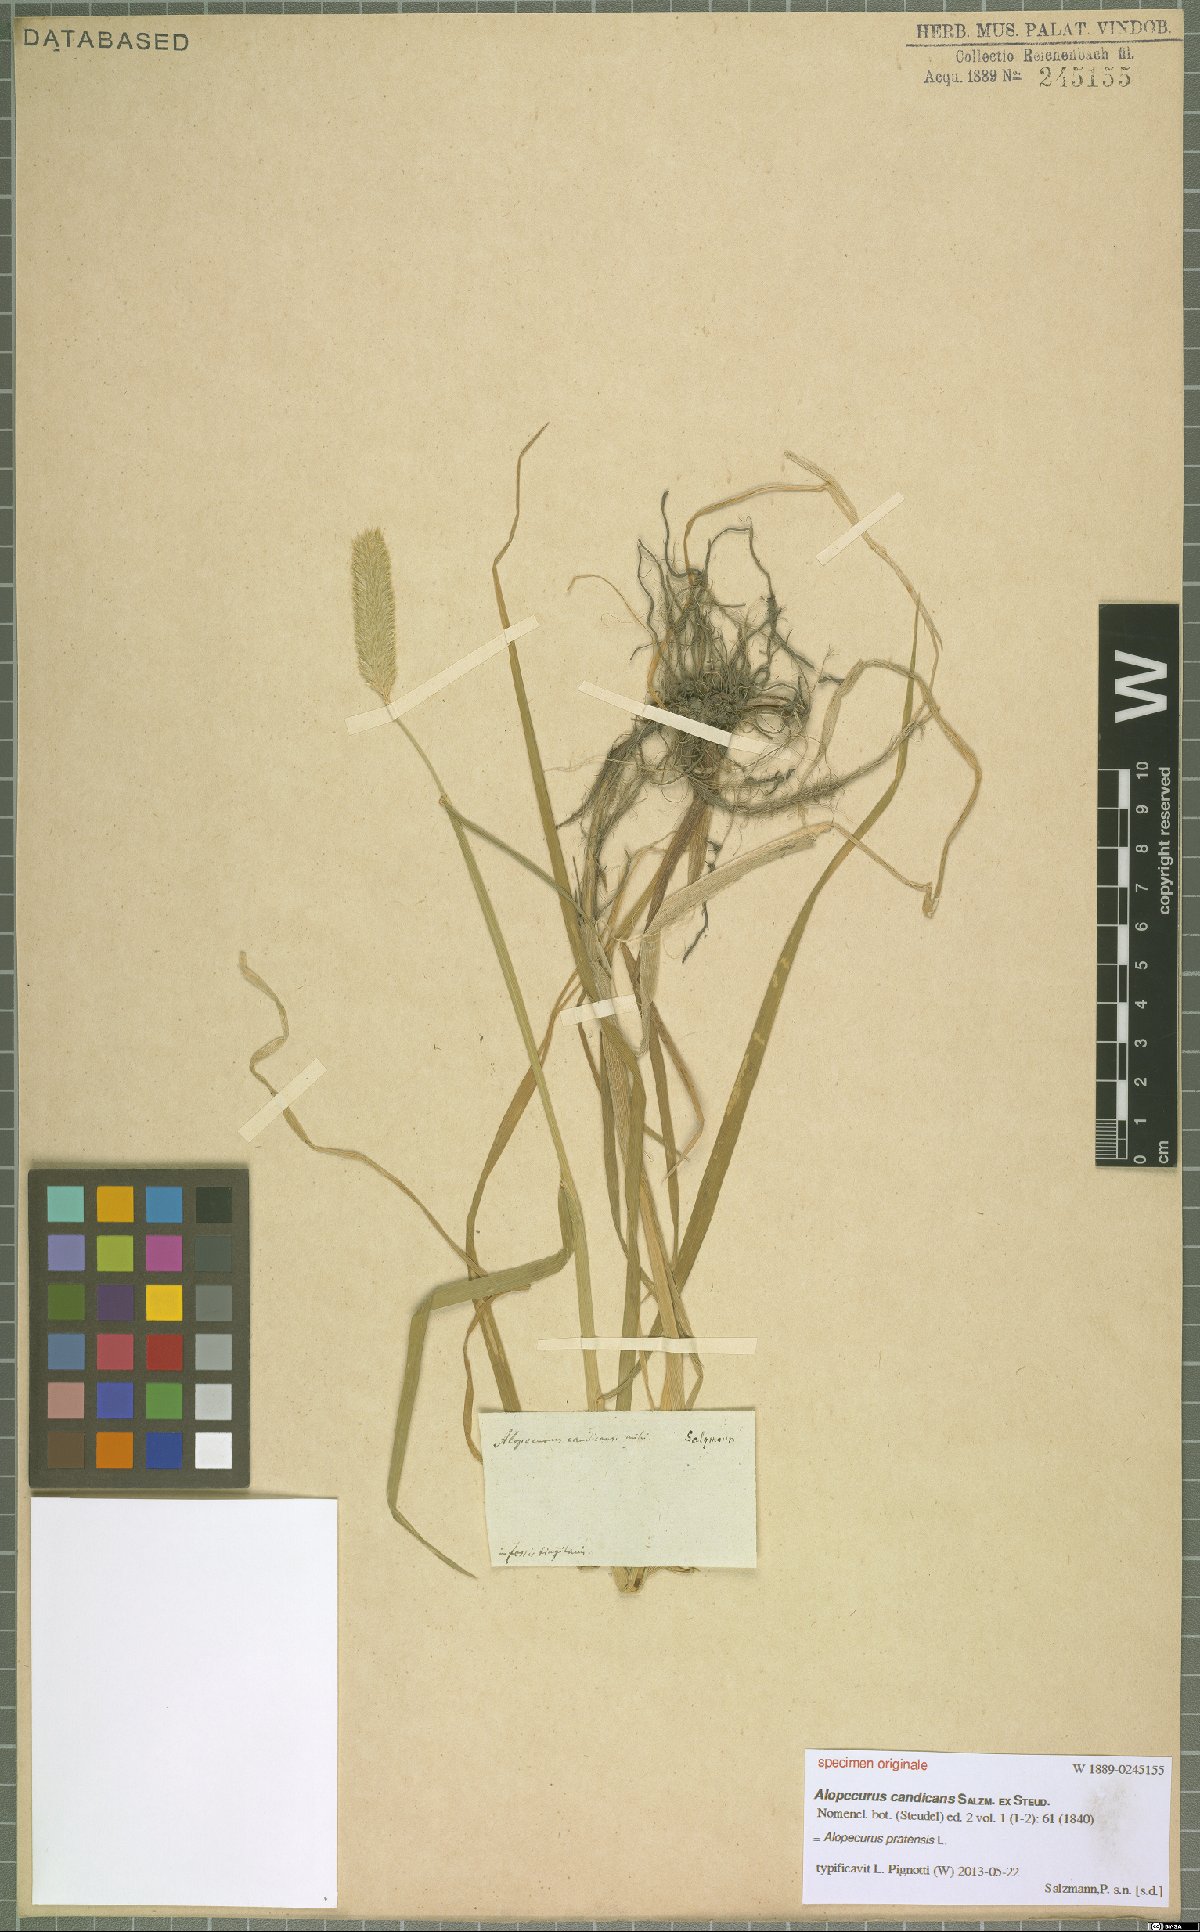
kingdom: Plantae
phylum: Tracheophyta
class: Liliopsida
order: Poales
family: Poaceae
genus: Alopecurus
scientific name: Alopecurus pratensis
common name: Meadow foxtail
